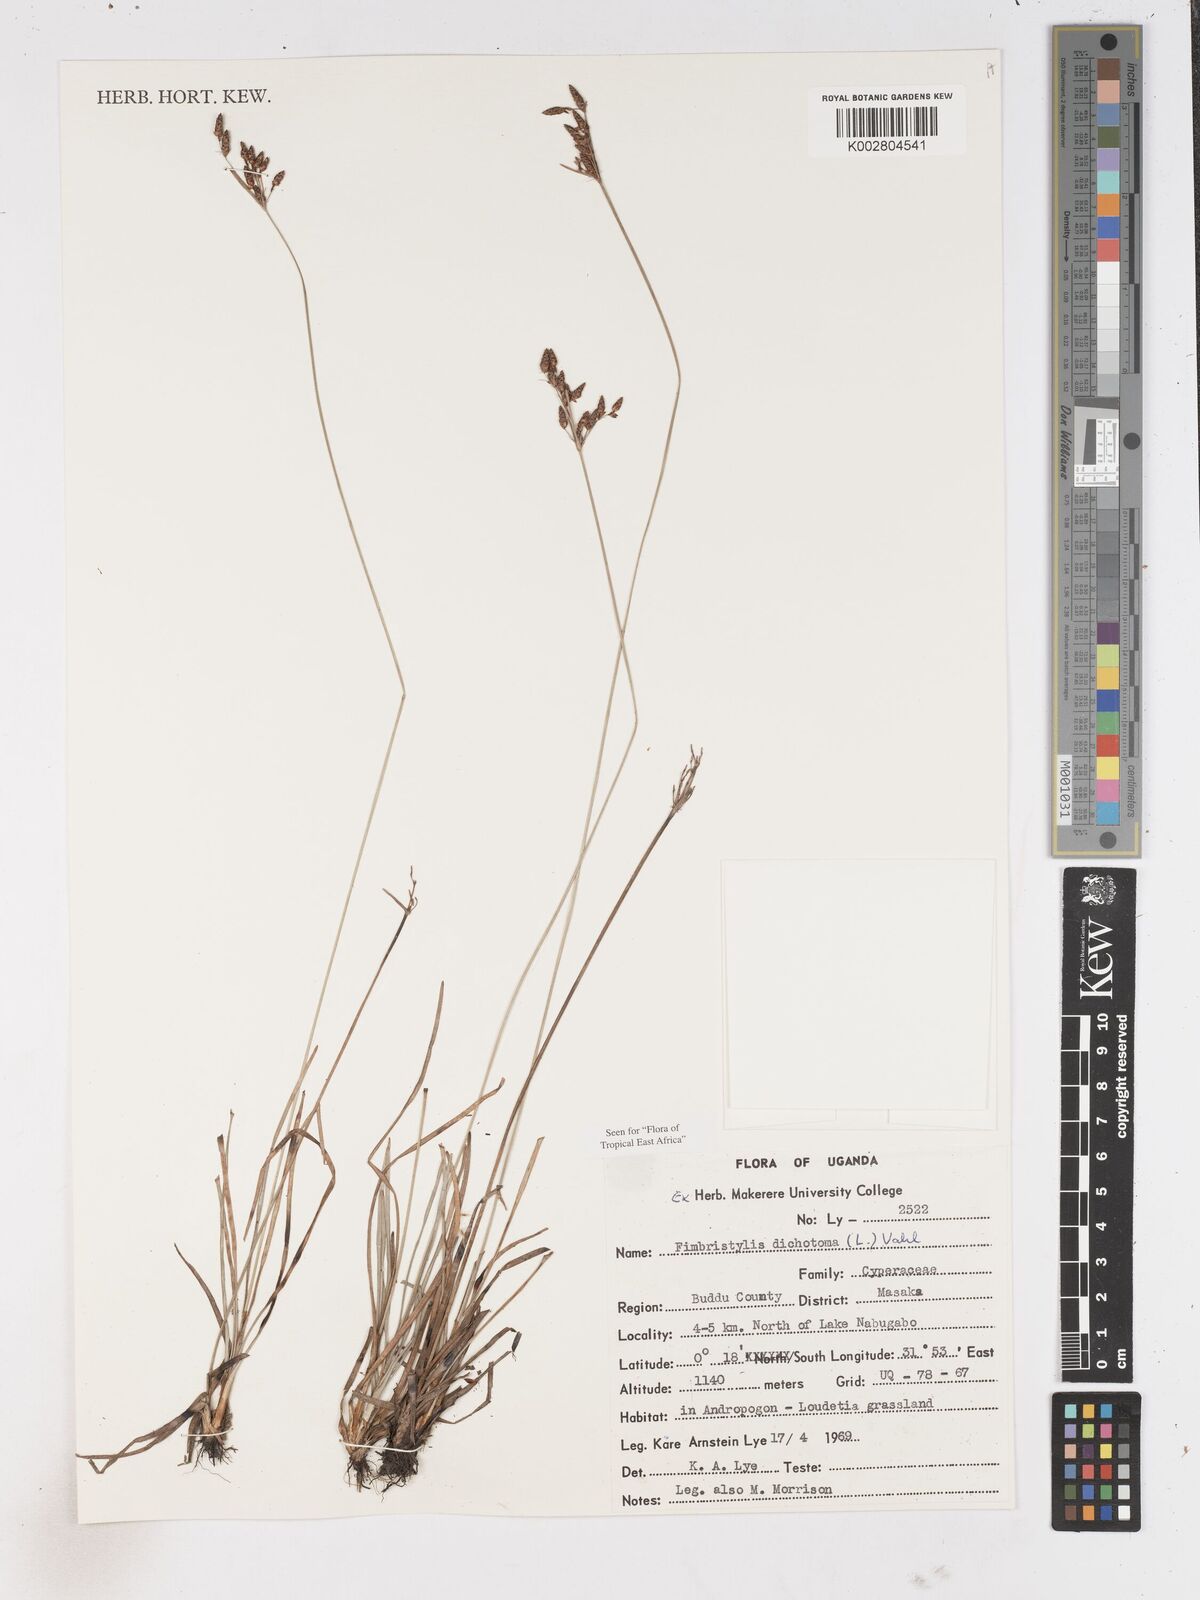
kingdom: Plantae
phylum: Tracheophyta
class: Liliopsida
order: Poales
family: Cyperaceae
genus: Fimbristylis
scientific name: Fimbristylis dichotoma
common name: Forked fimbry
